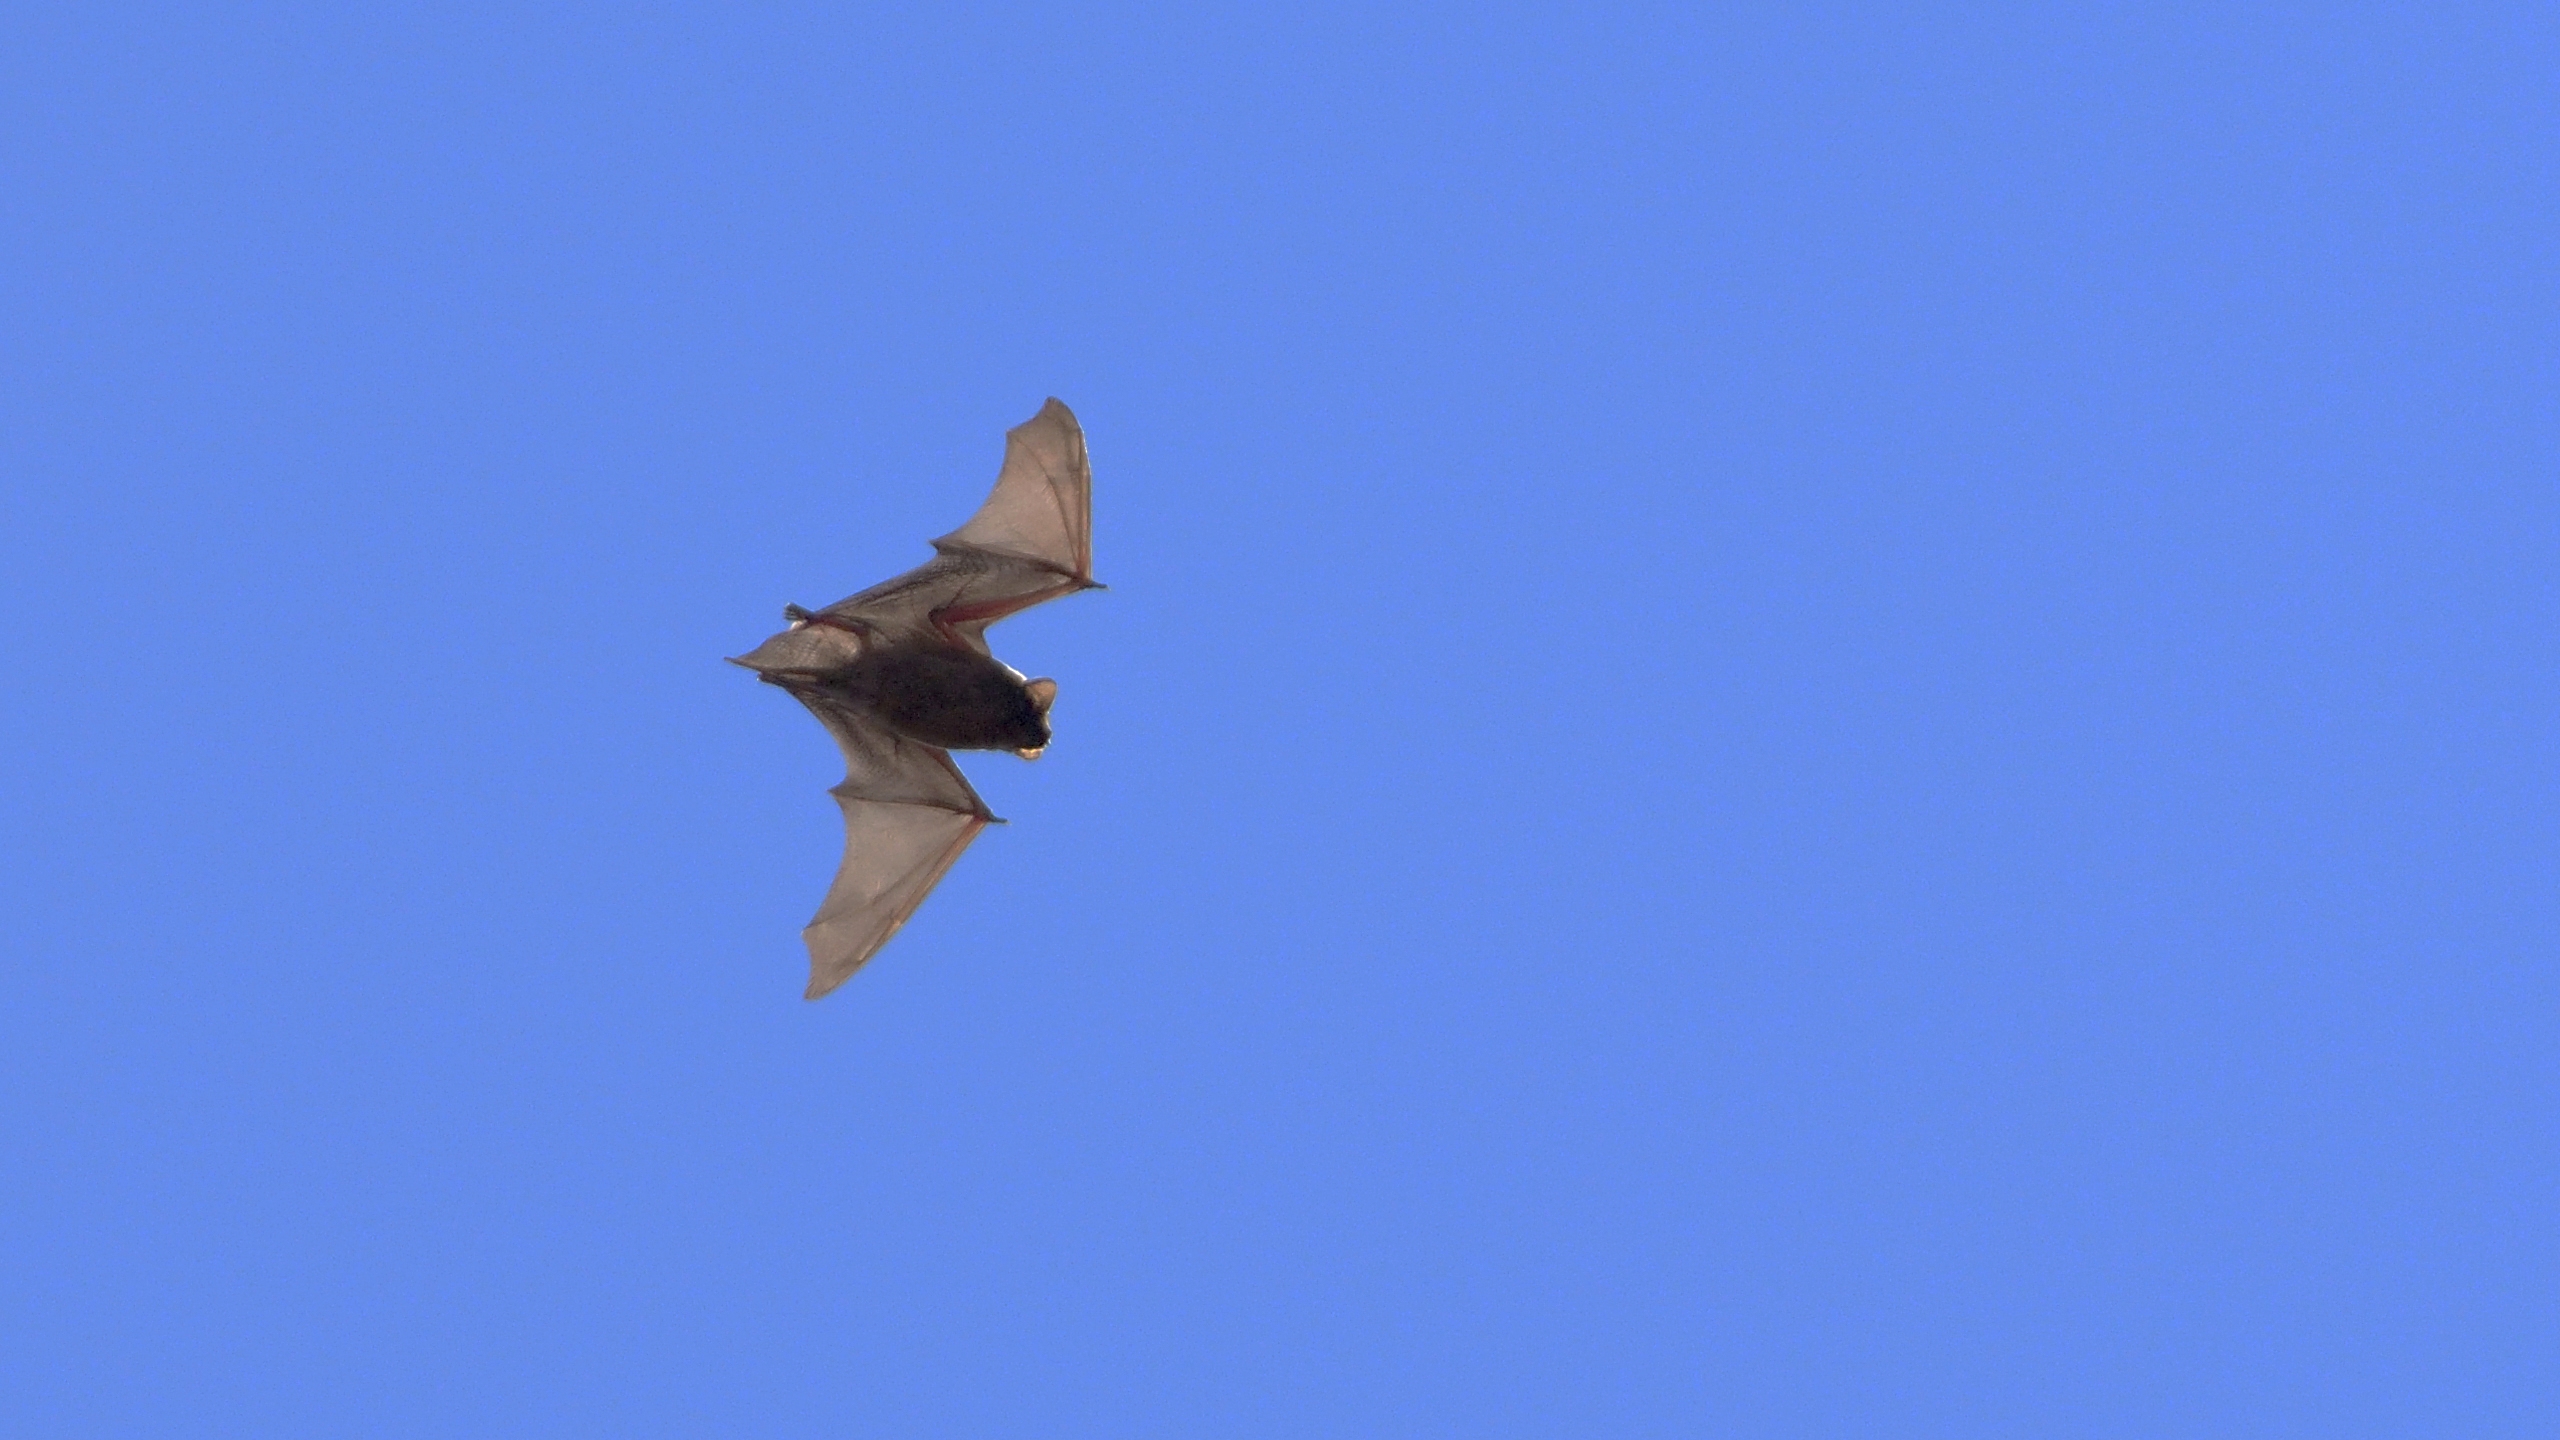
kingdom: Animalia
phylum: Chordata
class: Mammalia
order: Chiroptera
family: Vespertilionidae
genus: Nyctalus
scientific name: Nyctalus noctula
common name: Brunflagermus
